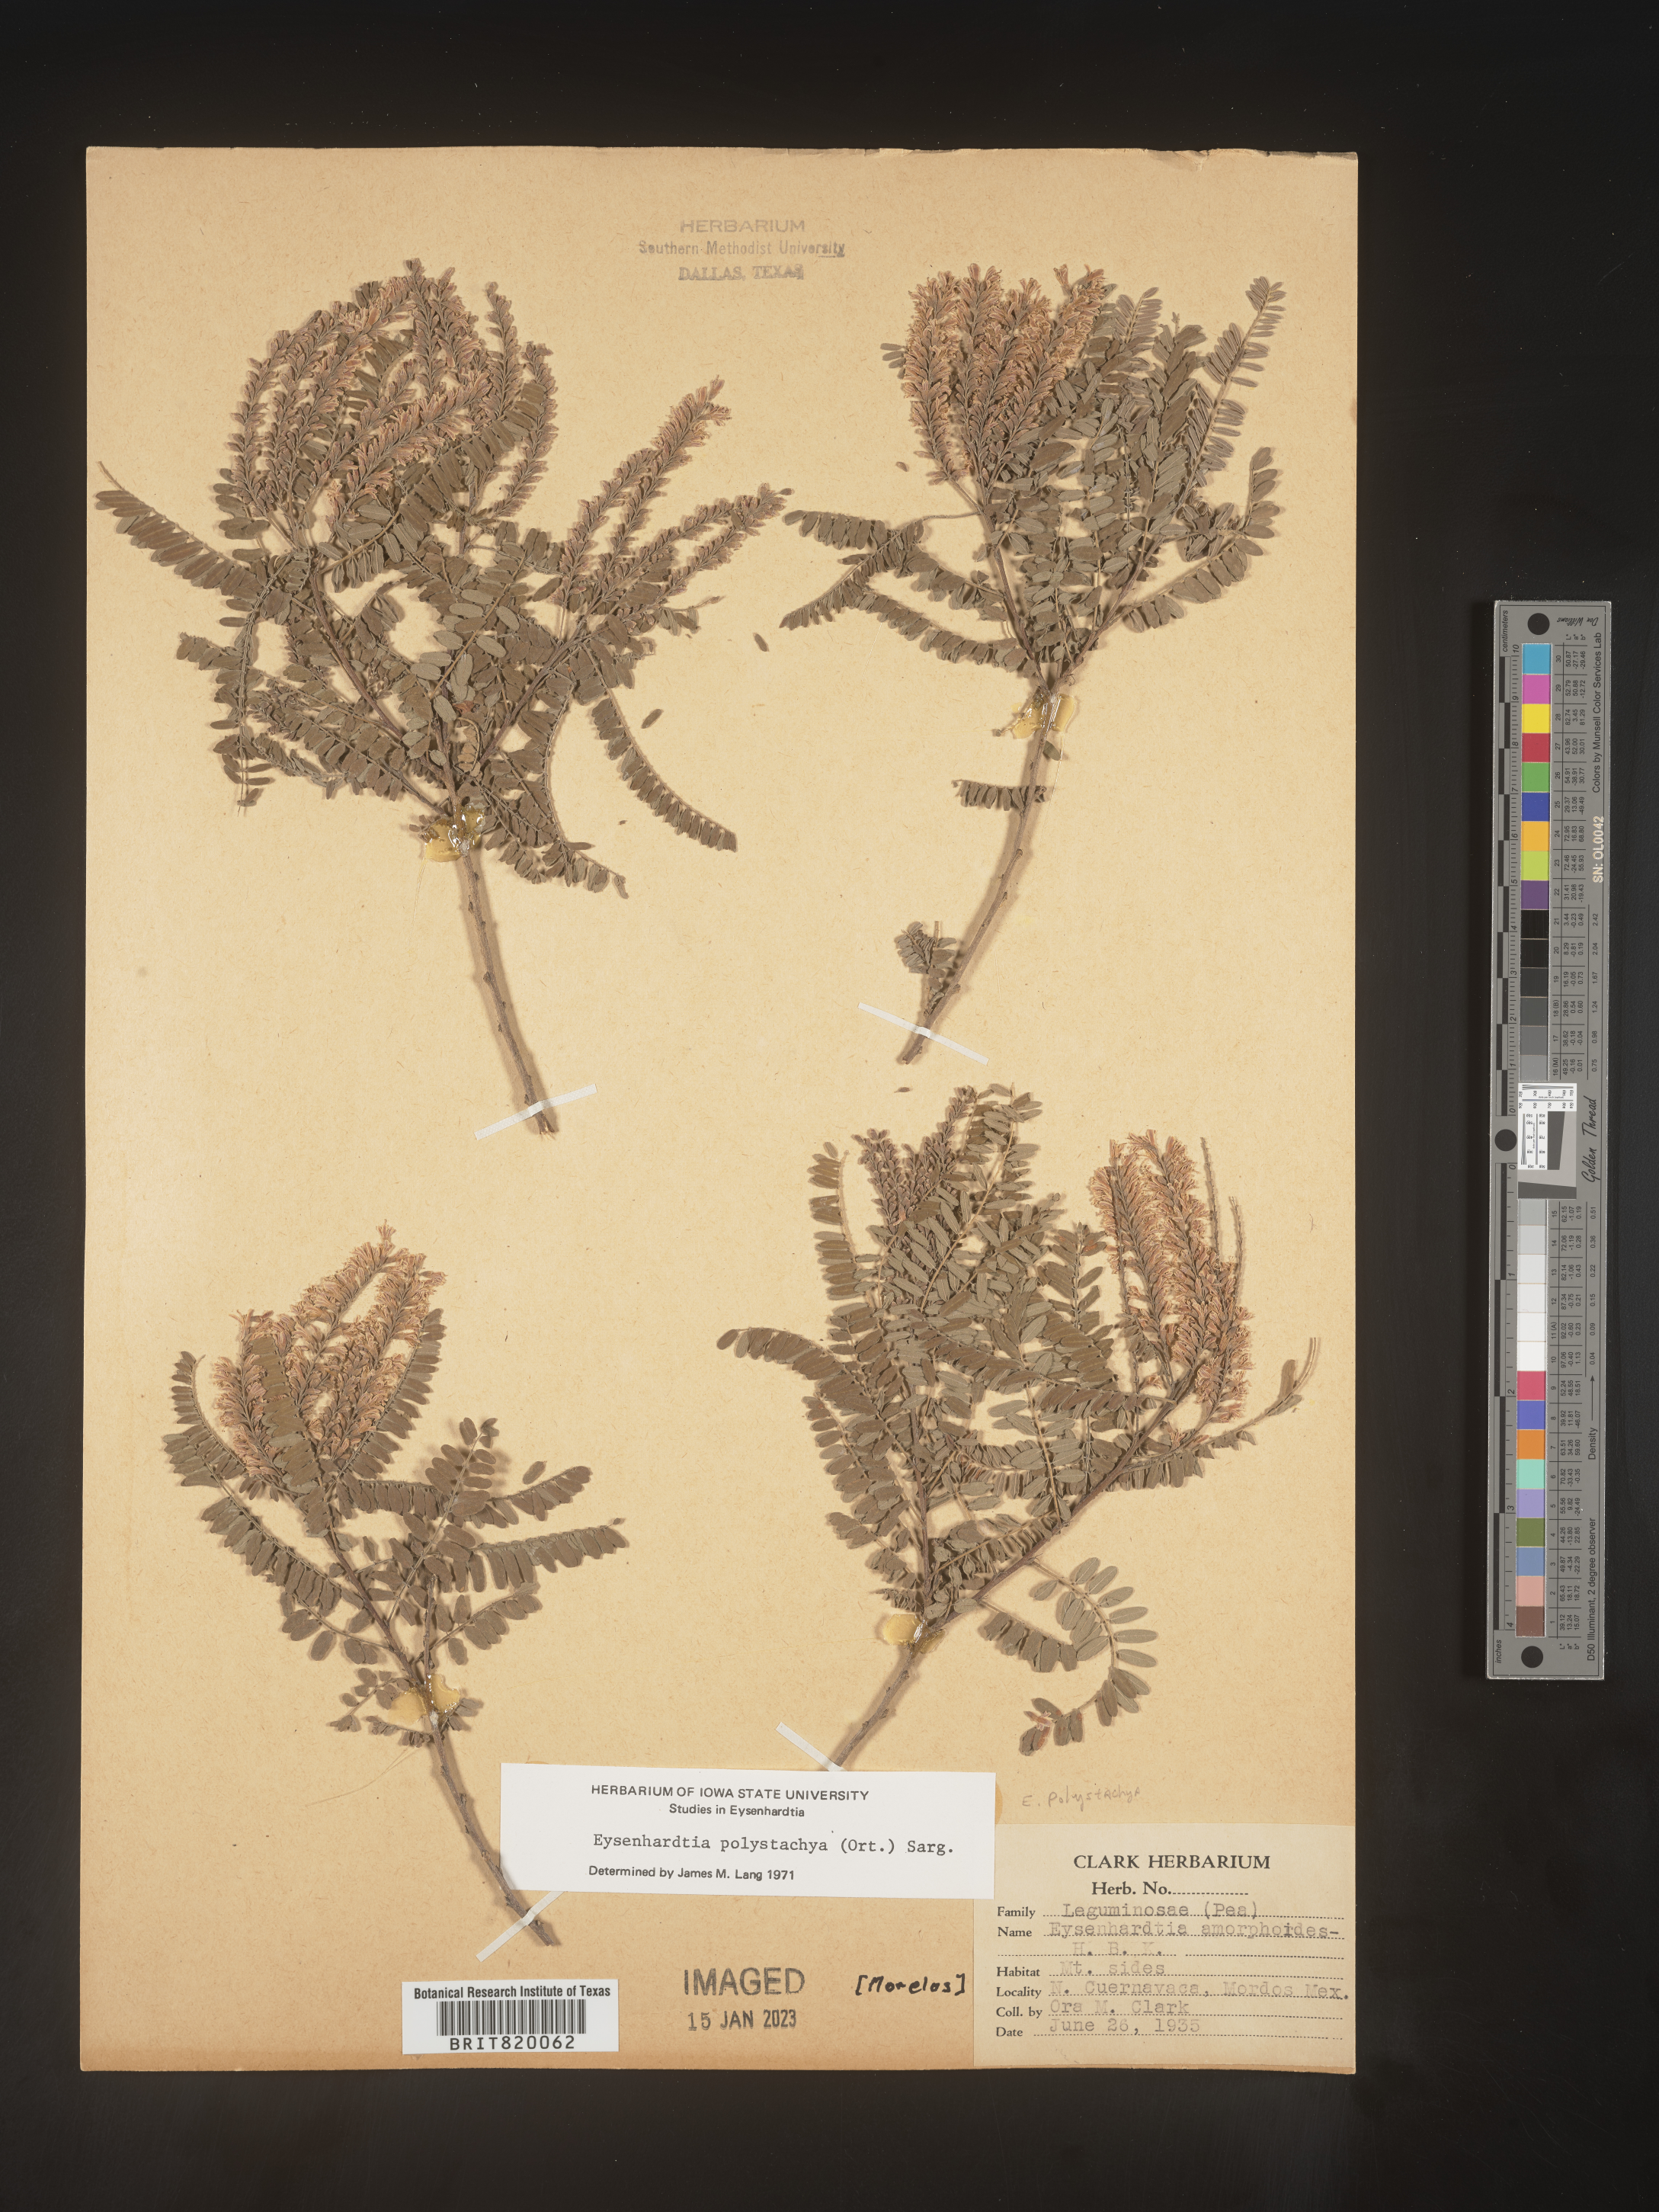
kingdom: Plantae
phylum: Tracheophyta
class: Magnoliopsida
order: Fabales
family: Fabaceae
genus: Eysenhardtia
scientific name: Eysenhardtia
